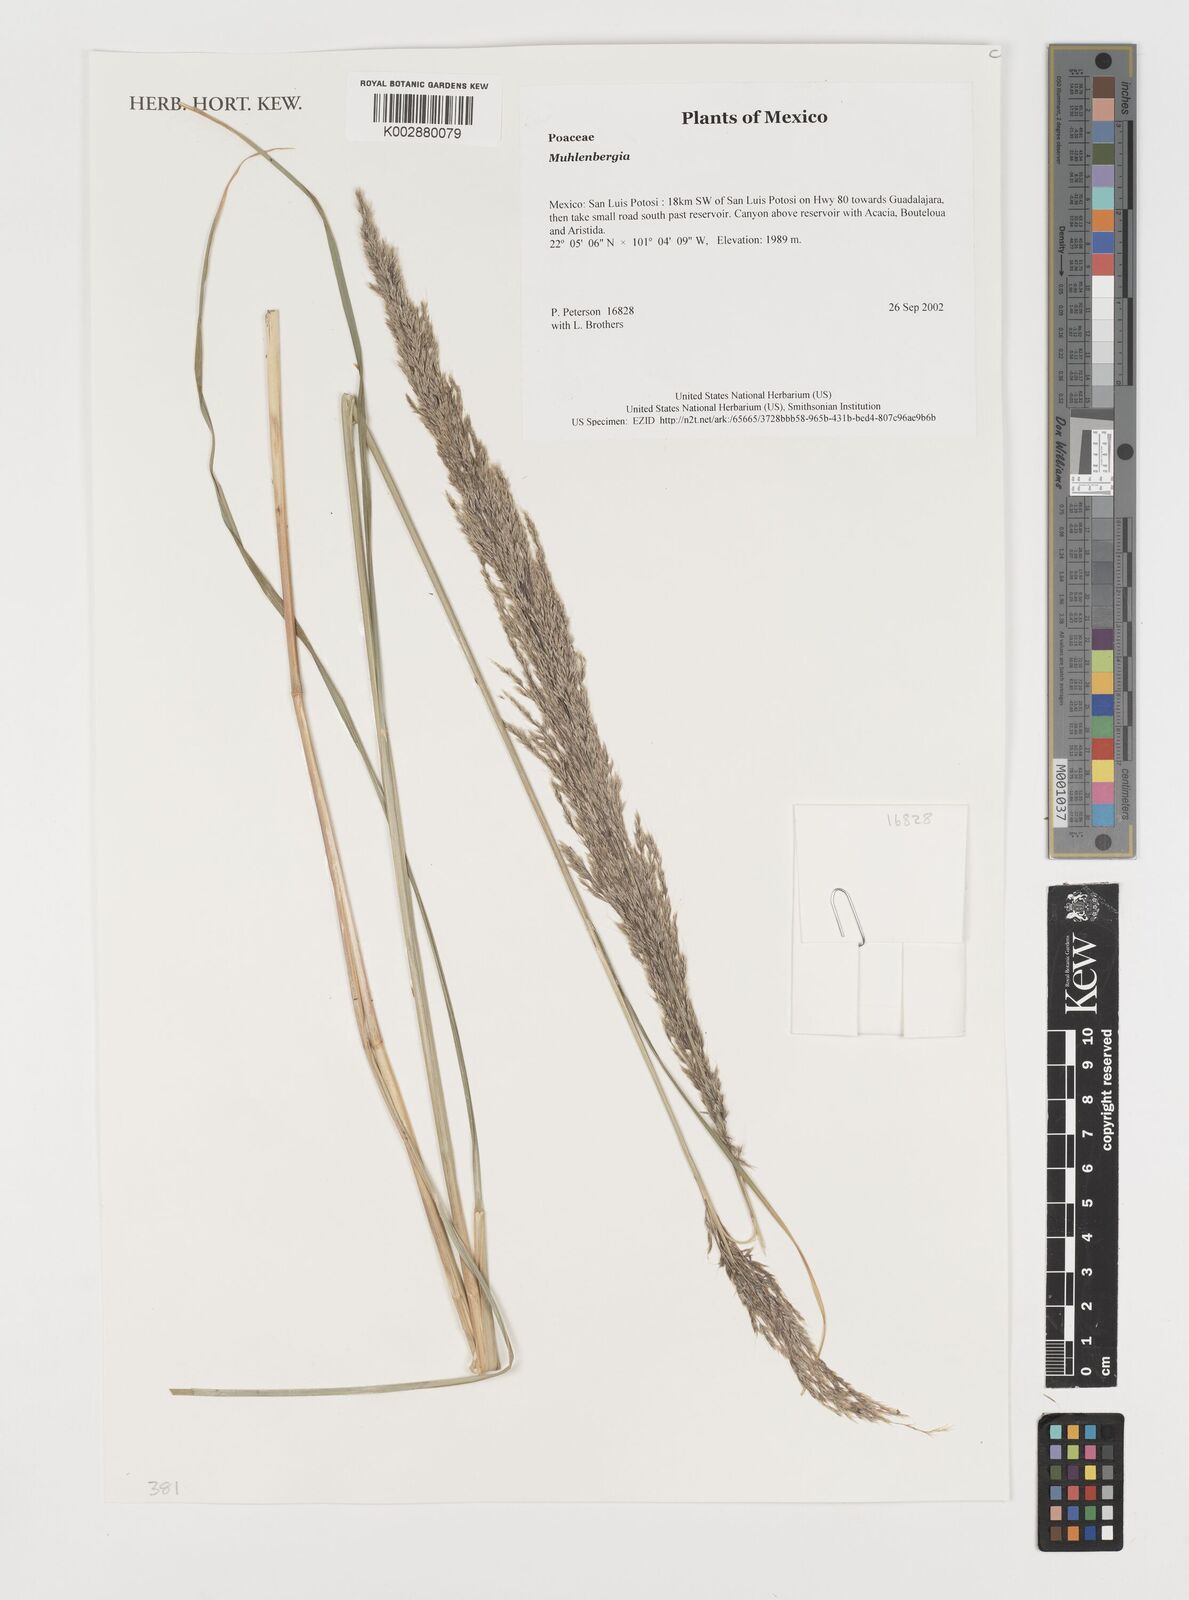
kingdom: Plantae
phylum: Tracheophyta
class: Liliopsida
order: Poales
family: Poaceae
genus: Muhlenbergia
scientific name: Muhlenbergia
